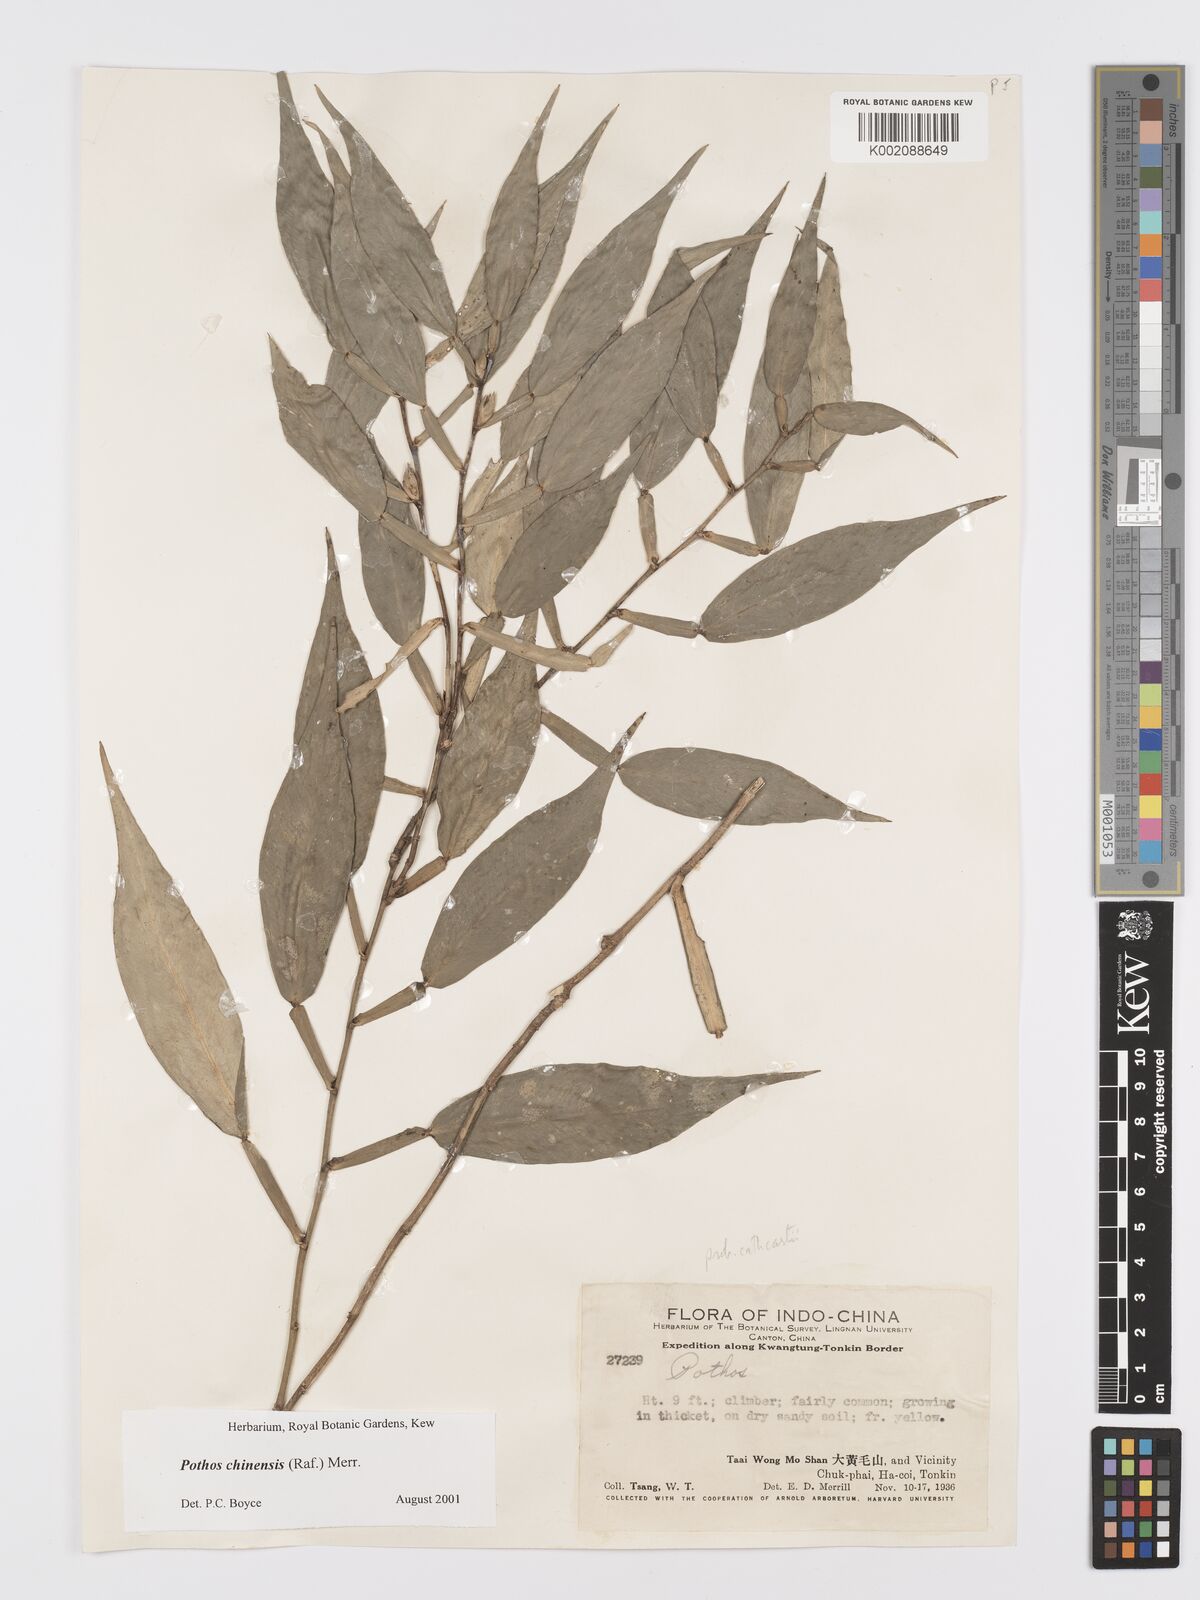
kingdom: Plantae
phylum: Tracheophyta
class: Liliopsida
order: Alismatales
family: Araceae
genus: Pothos
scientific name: Pothos chinensis
